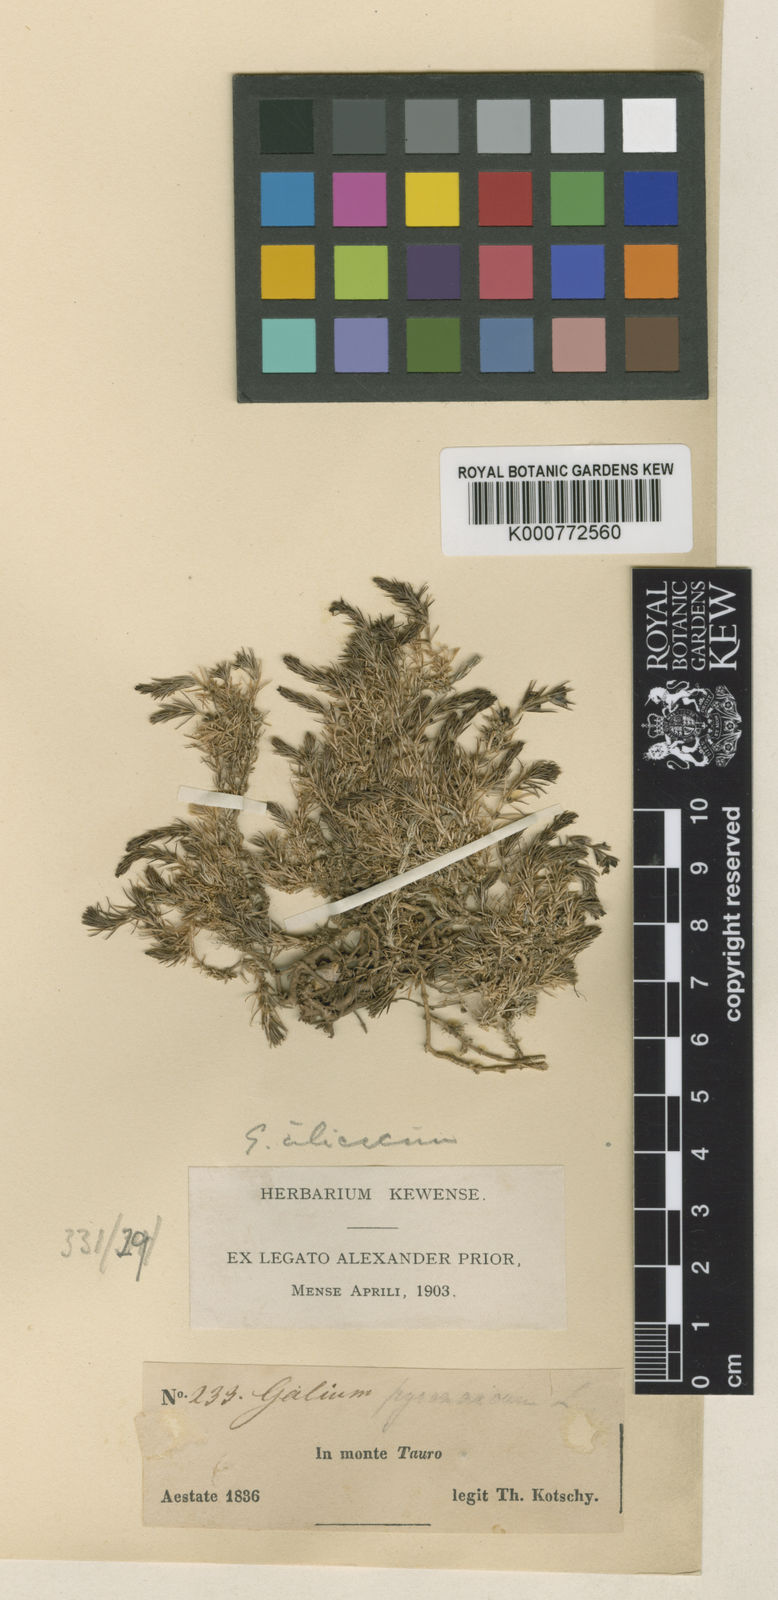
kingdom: Plantae
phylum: Tracheophyta
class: Magnoliopsida
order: Gentianales
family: Rubiaceae
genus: Galium
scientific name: Galium cilicicum
